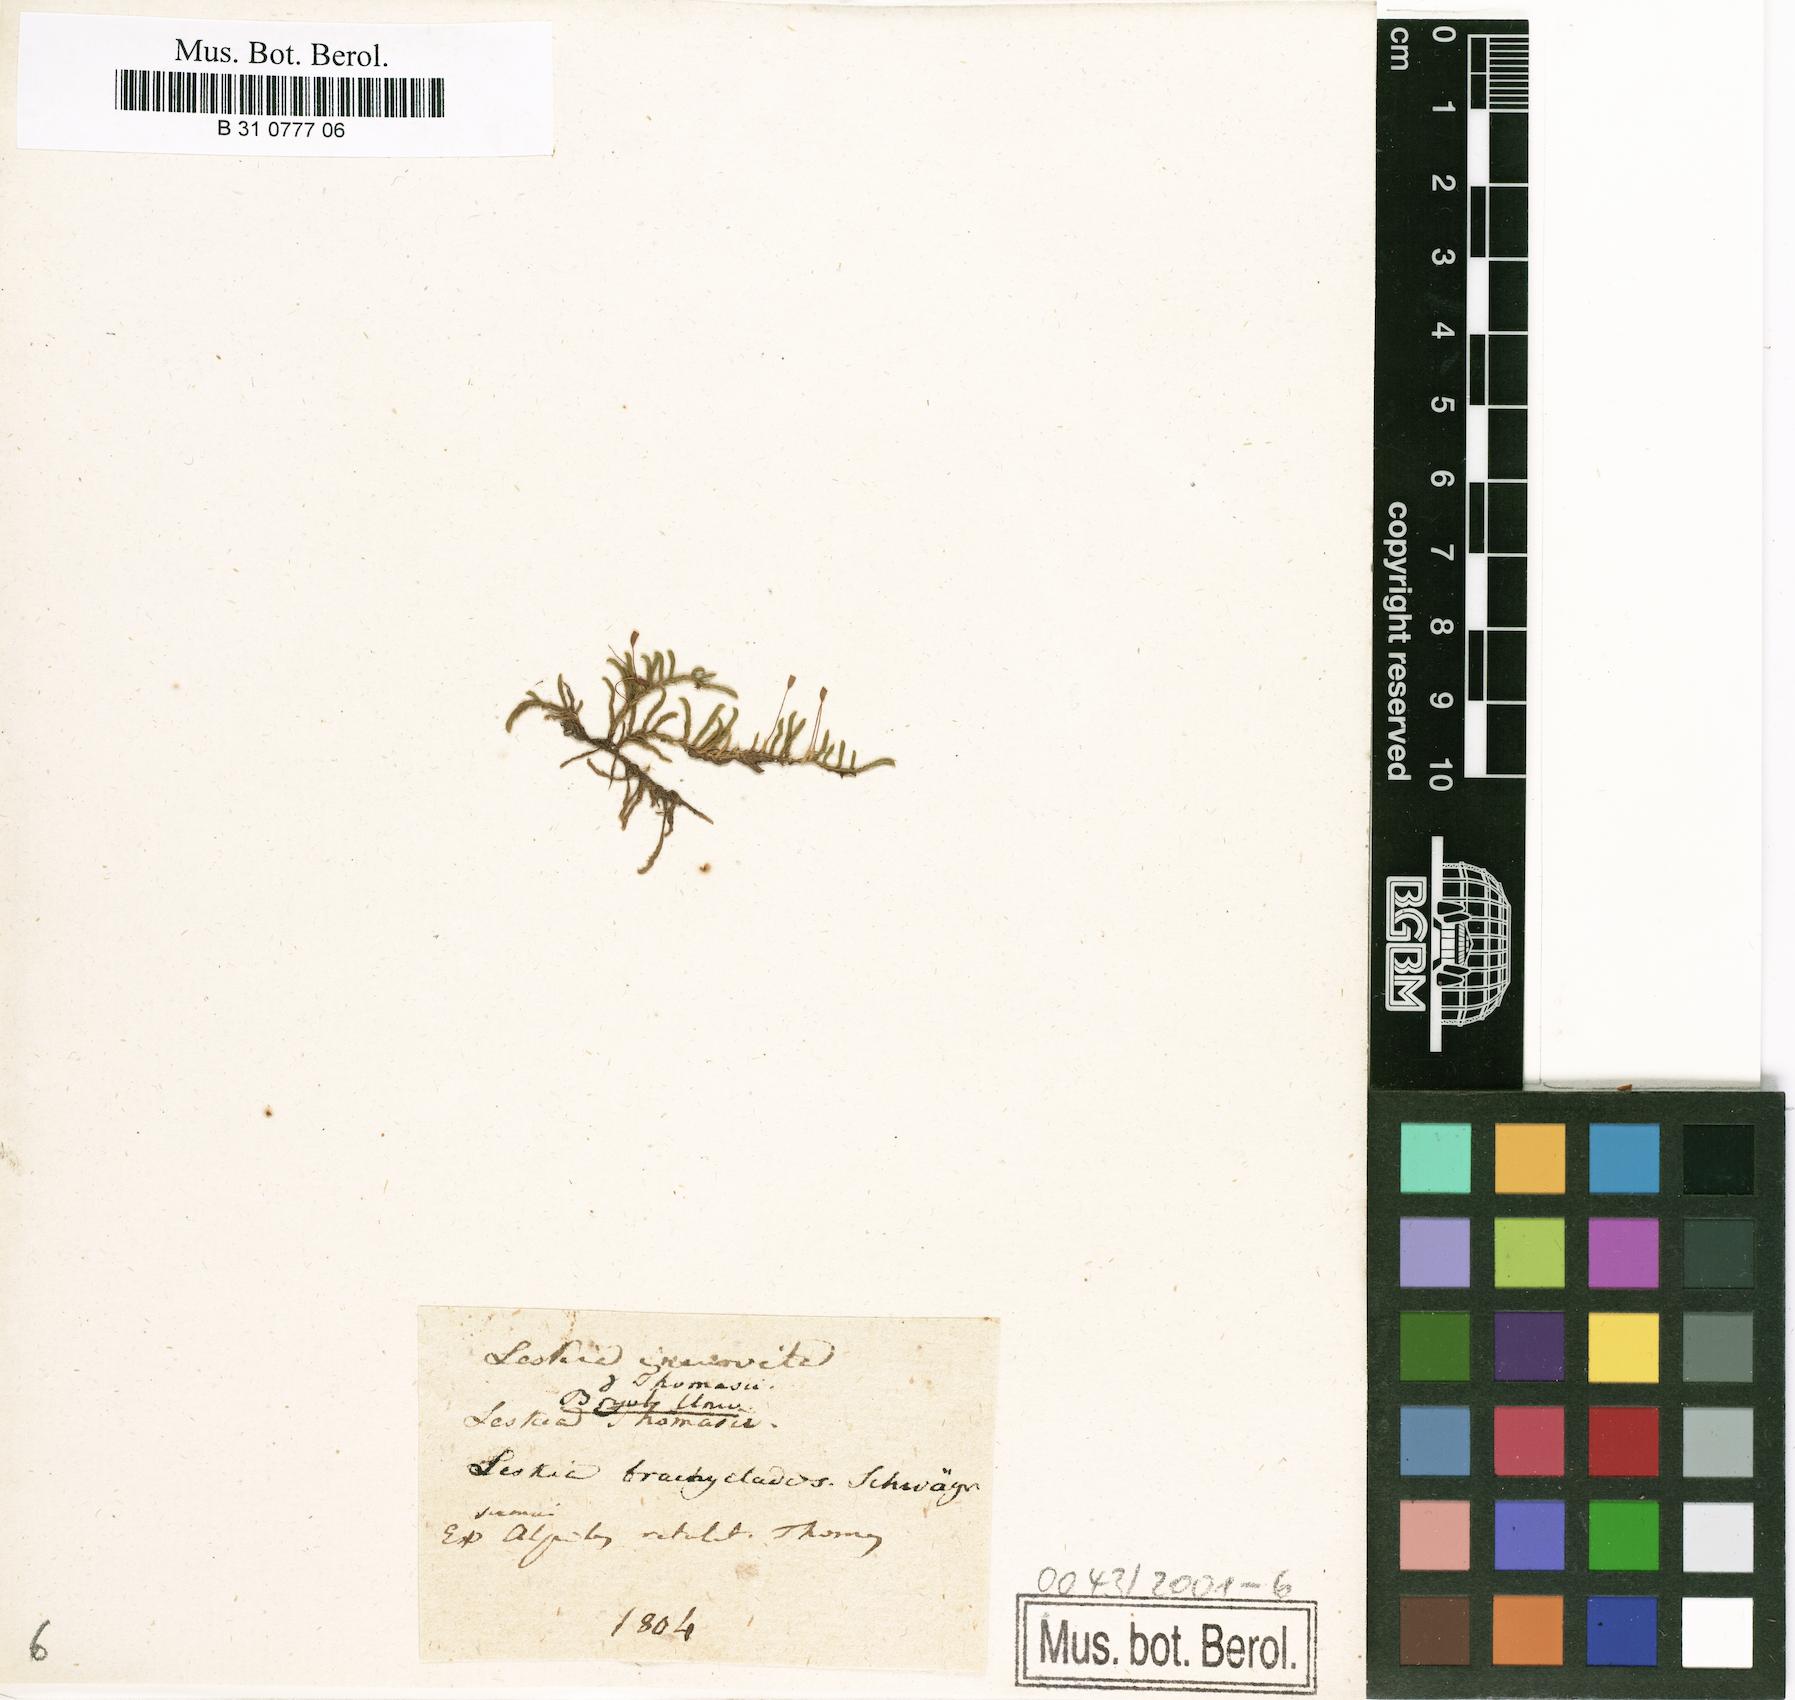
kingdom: Plantae
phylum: Bryophyta
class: Bryopsida
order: Hypnales
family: Pseudoleskeaceae
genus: Lescuraea
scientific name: Lescuraea incurvata
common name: Brown mountain leskea
